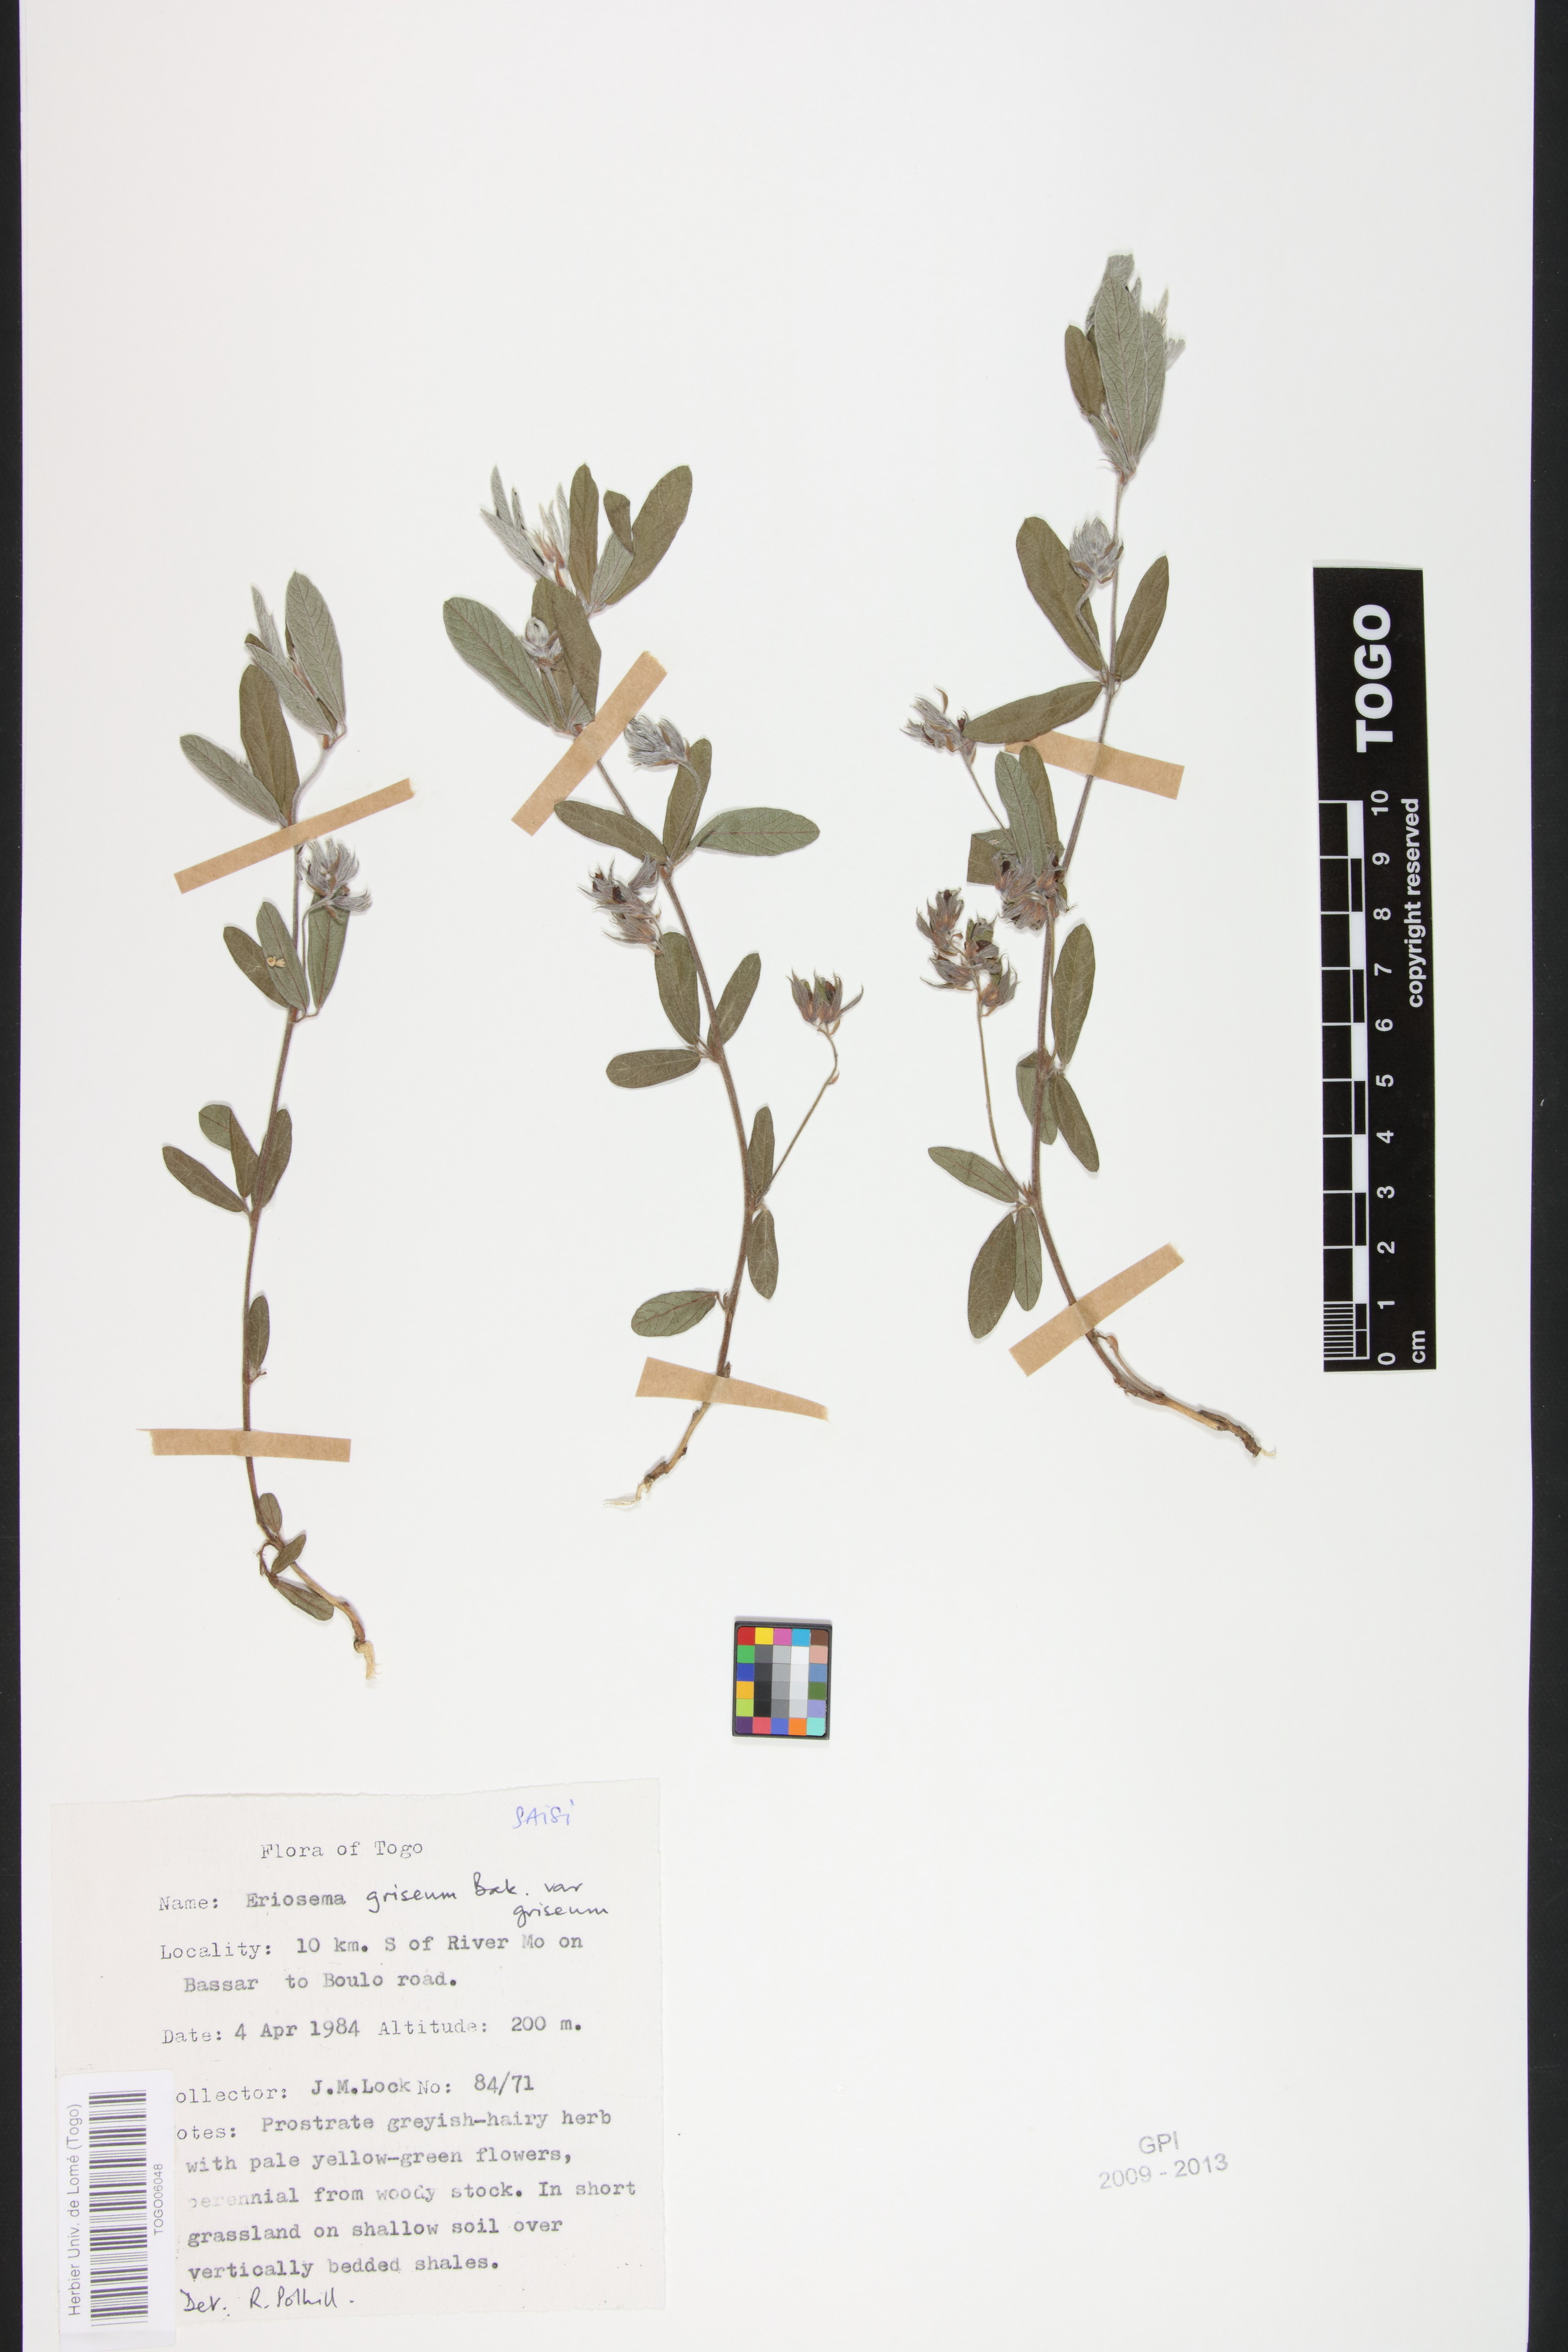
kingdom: Plantae
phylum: Tracheophyta
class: Magnoliopsida
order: Fabales
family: Fabaceae
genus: Eriosema
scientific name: Eriosema griseum
